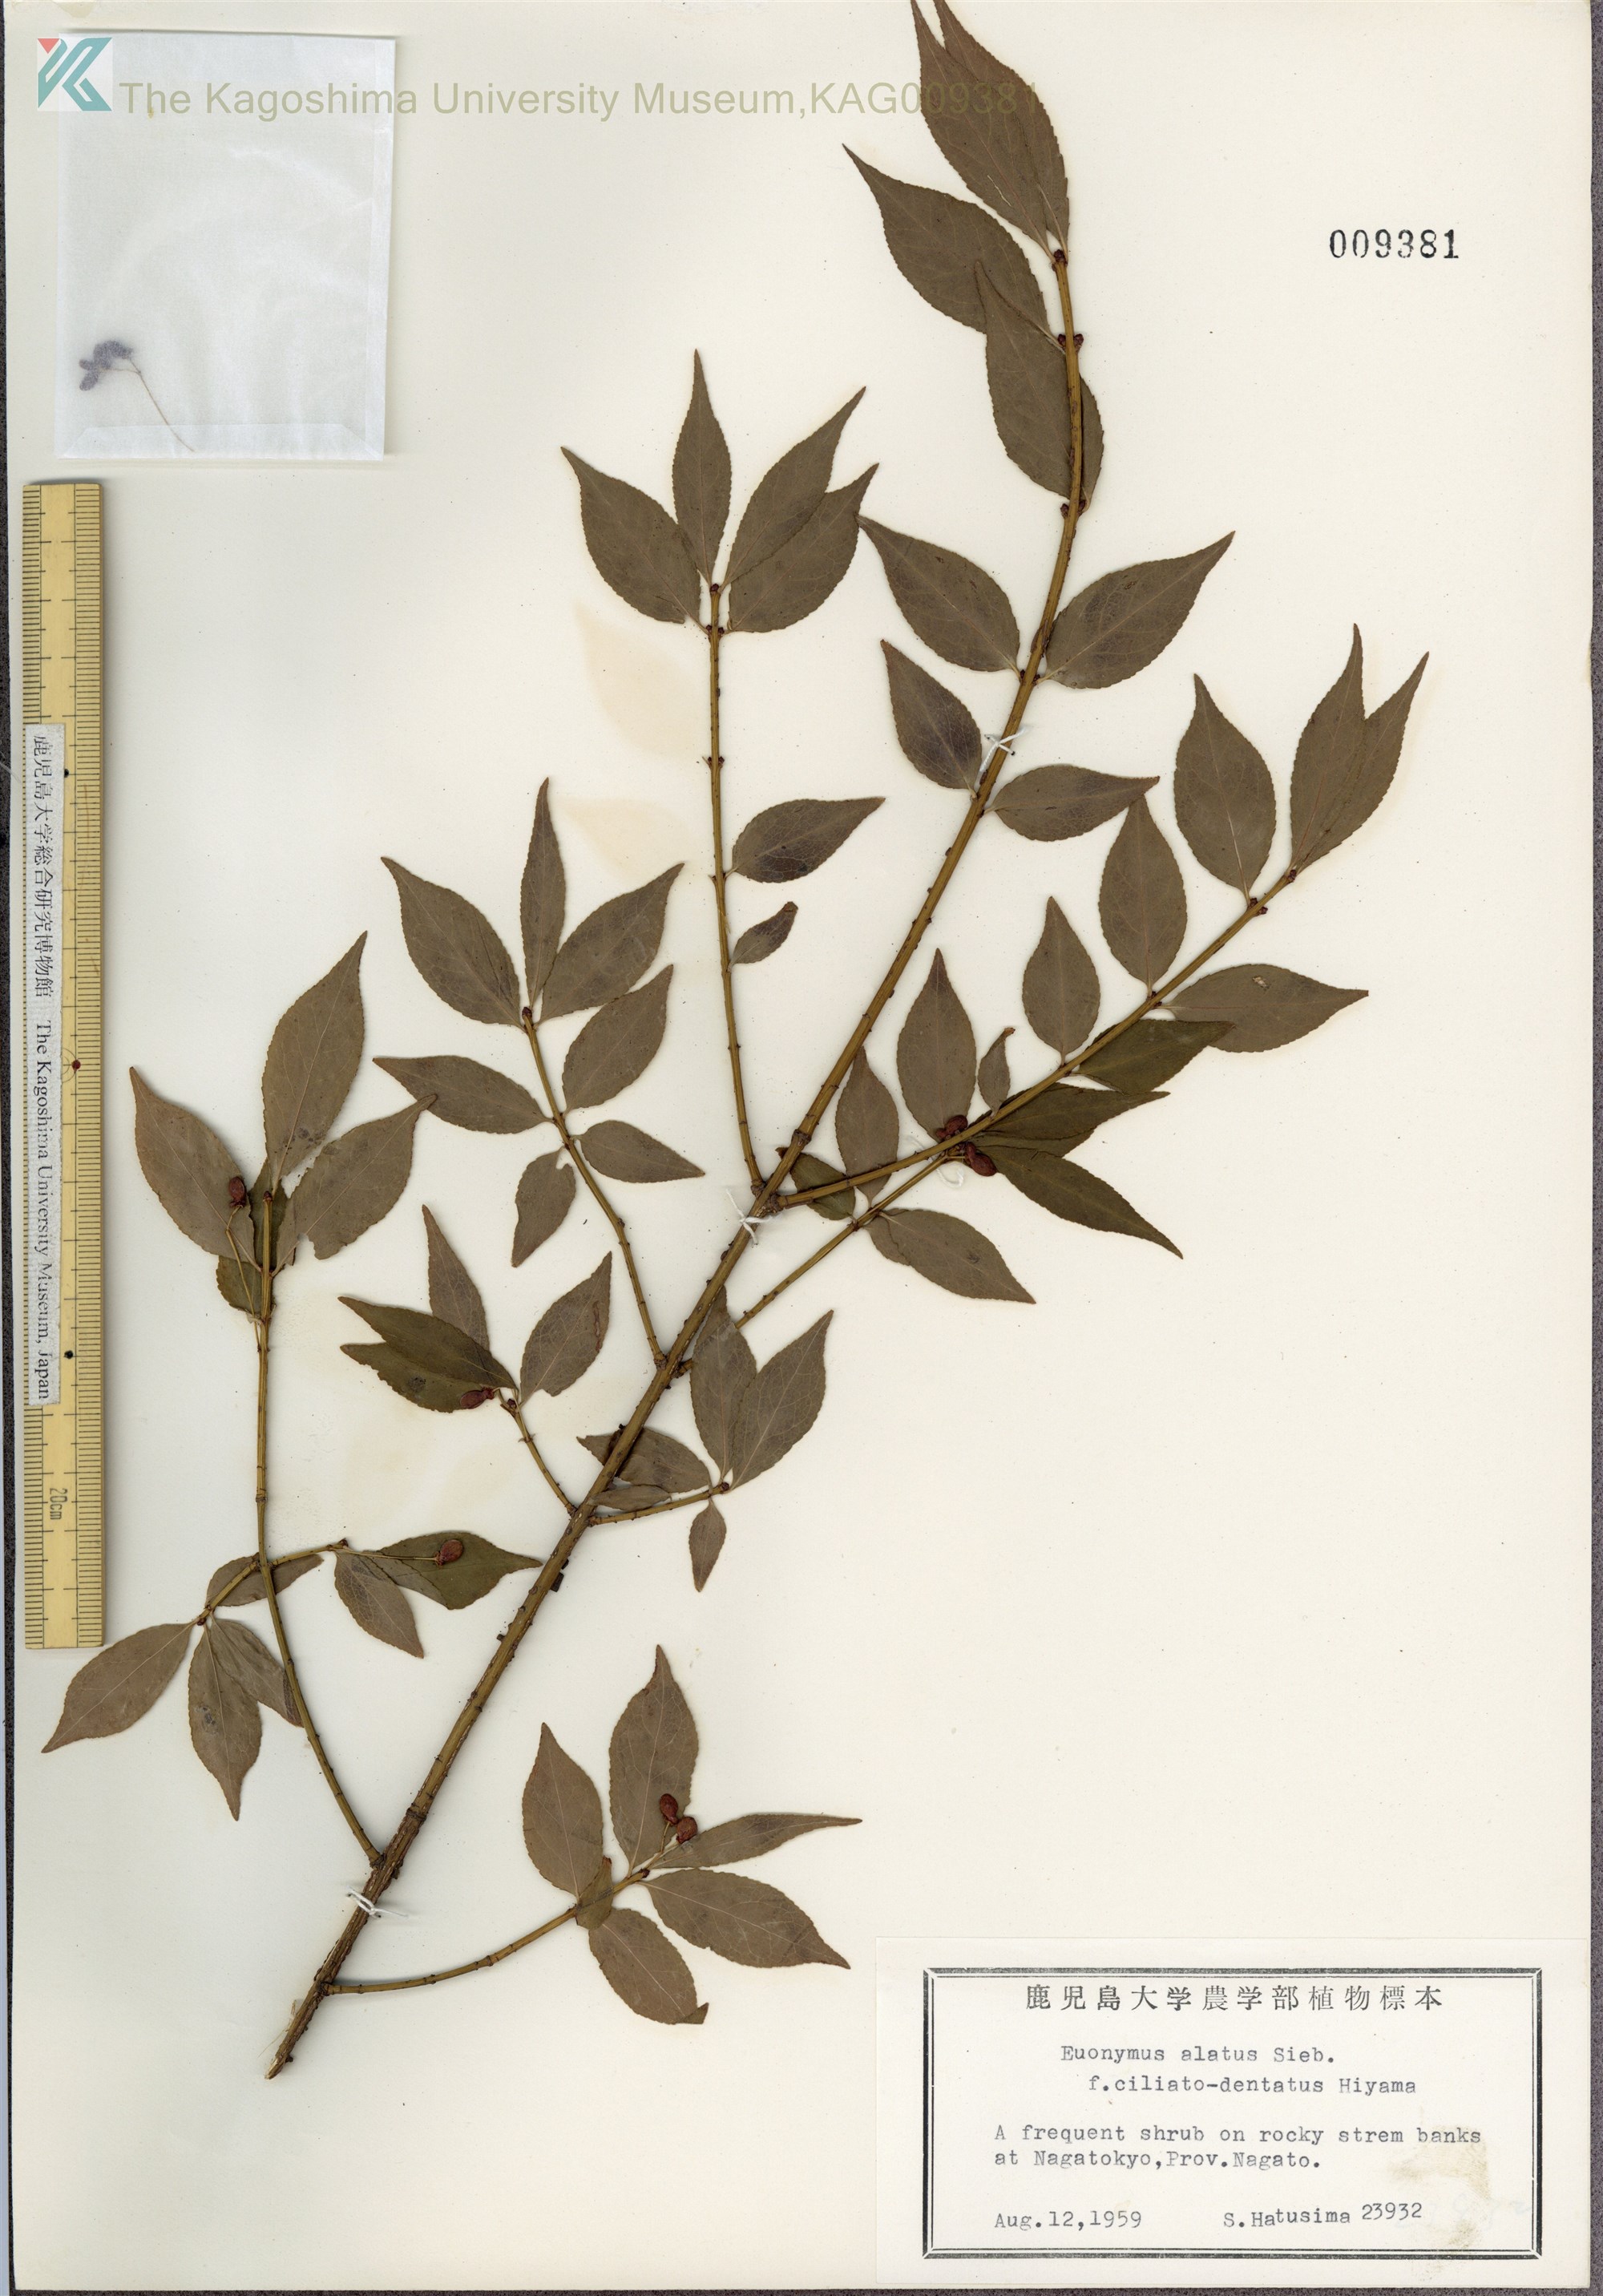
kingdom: Plantae
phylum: Tracheophyta
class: Magnoliopsida
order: Celastrales
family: Celastraceae
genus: Euonymus
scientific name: Euonymus alatus
